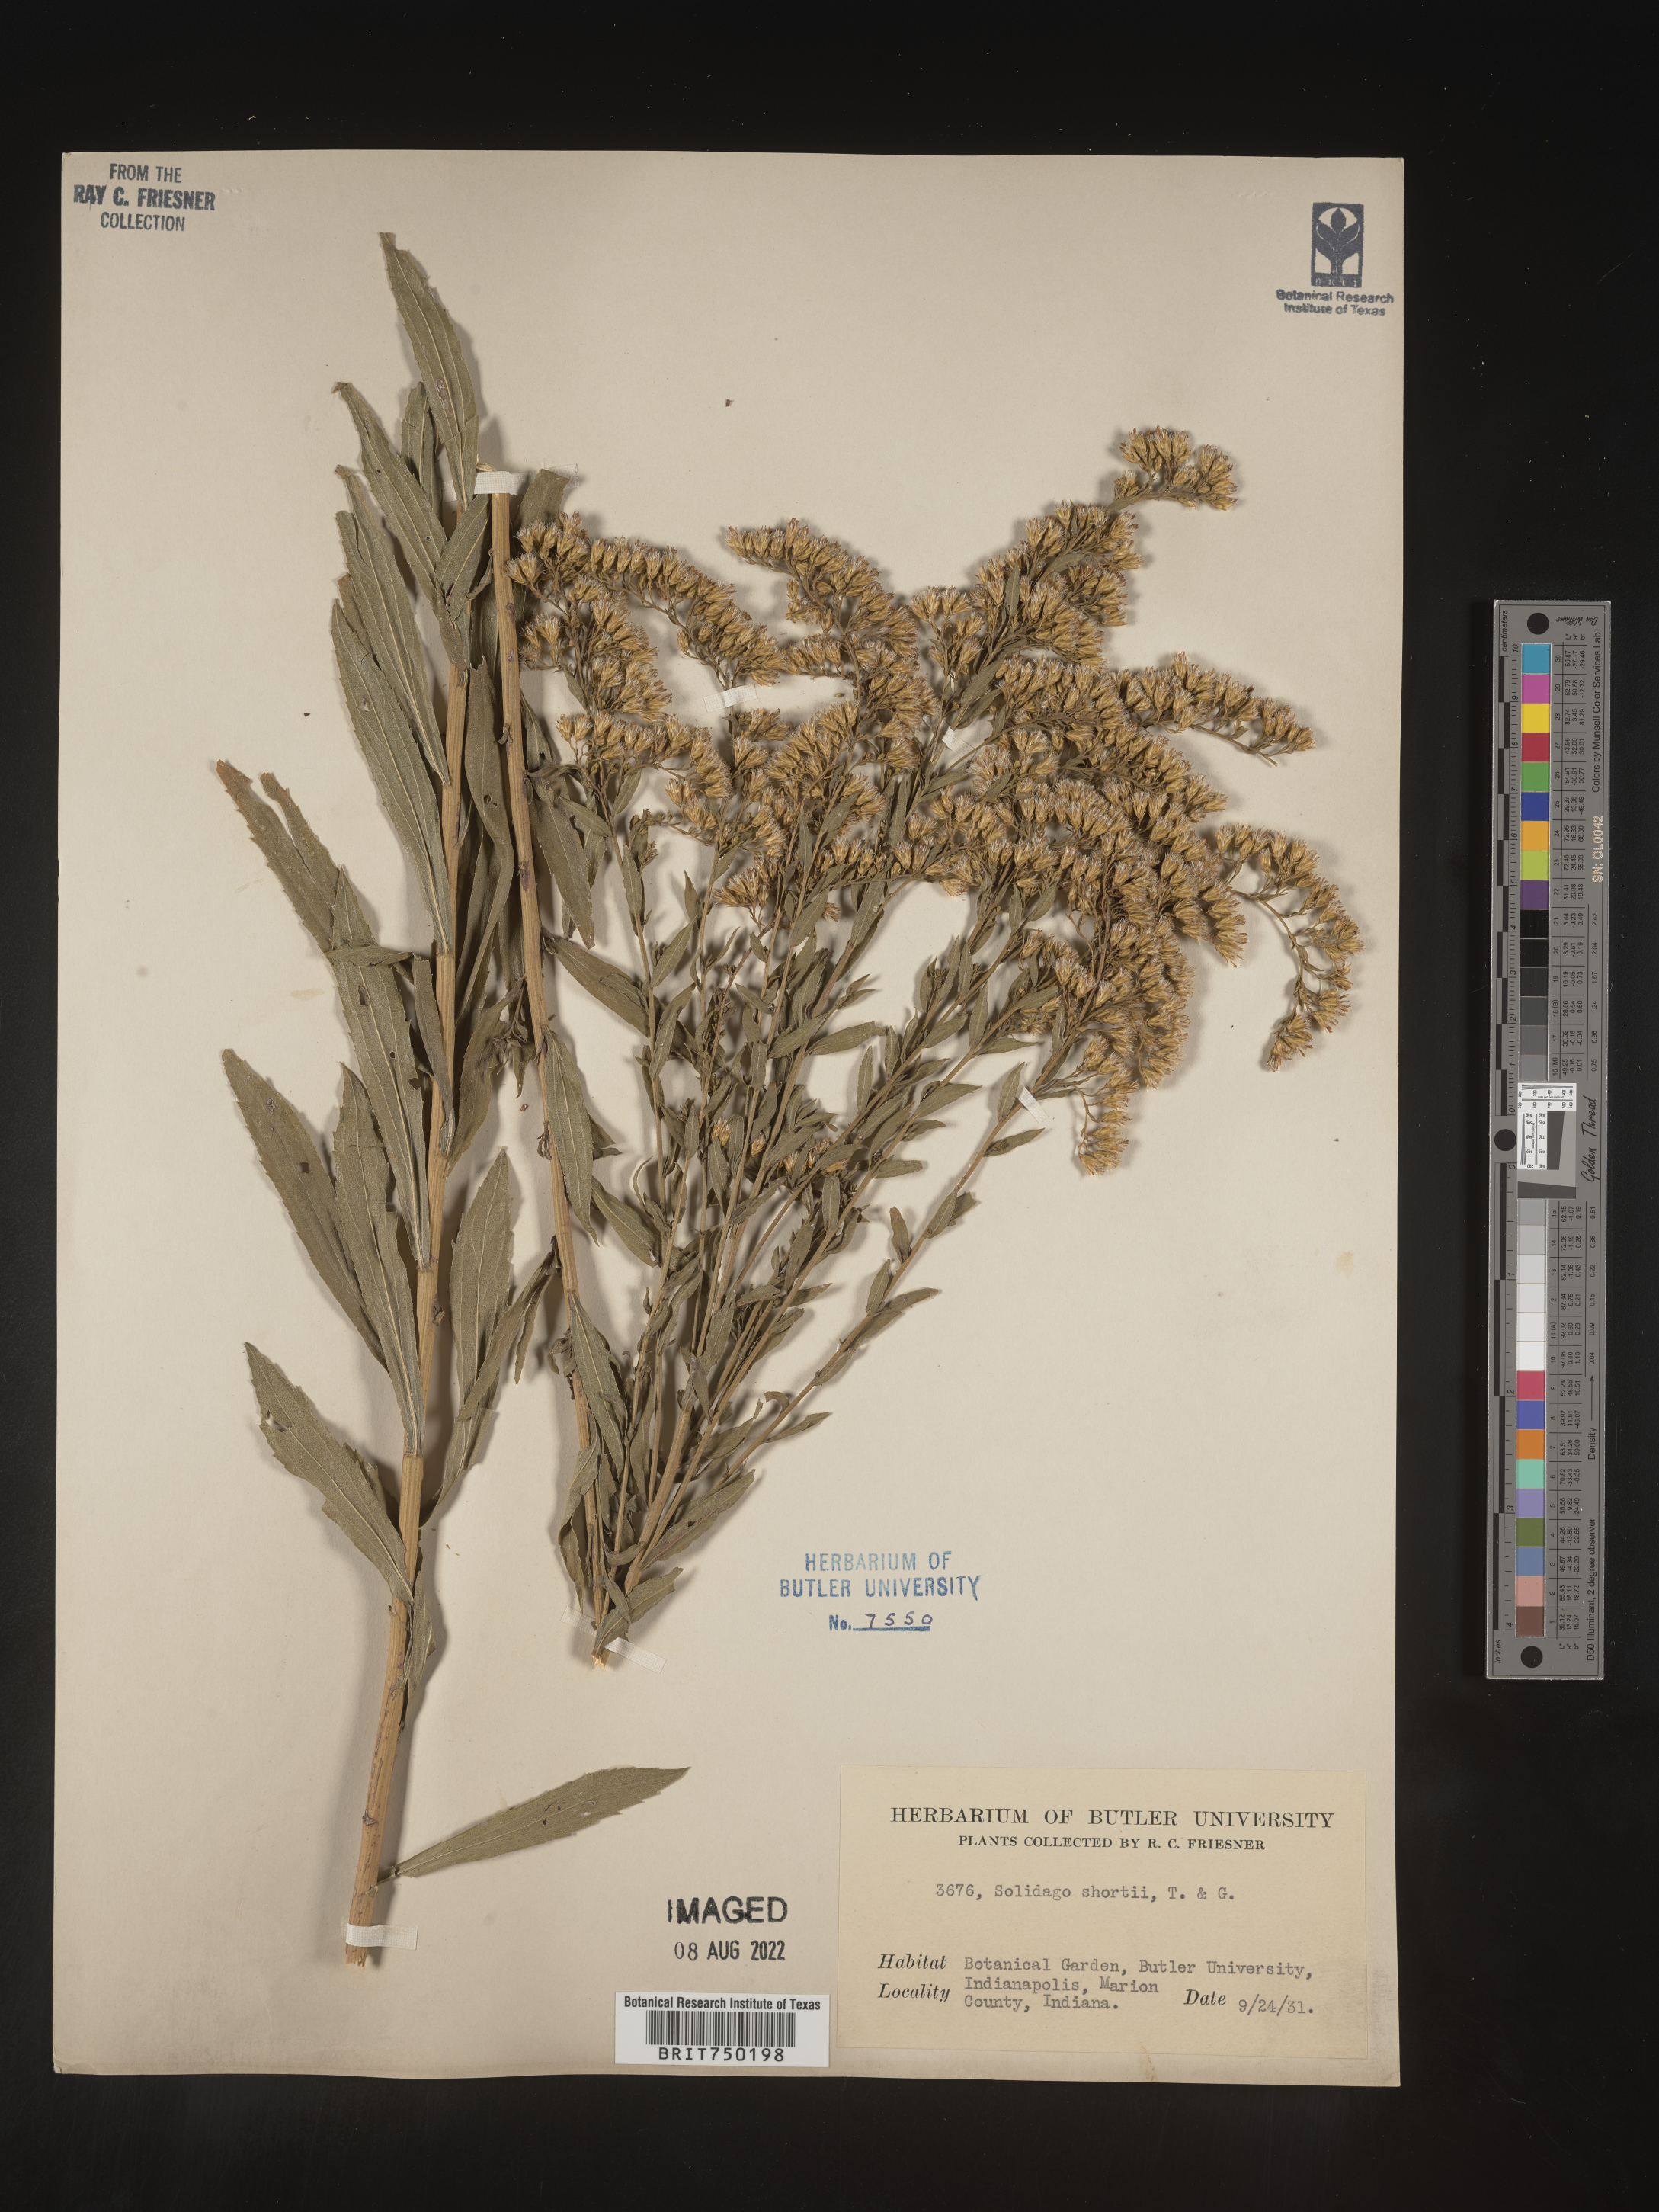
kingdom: Plantae
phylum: Tracheophyta
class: Magnoliopsida
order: Asterales
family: Asteraceae
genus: Solidago
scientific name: Solidago
